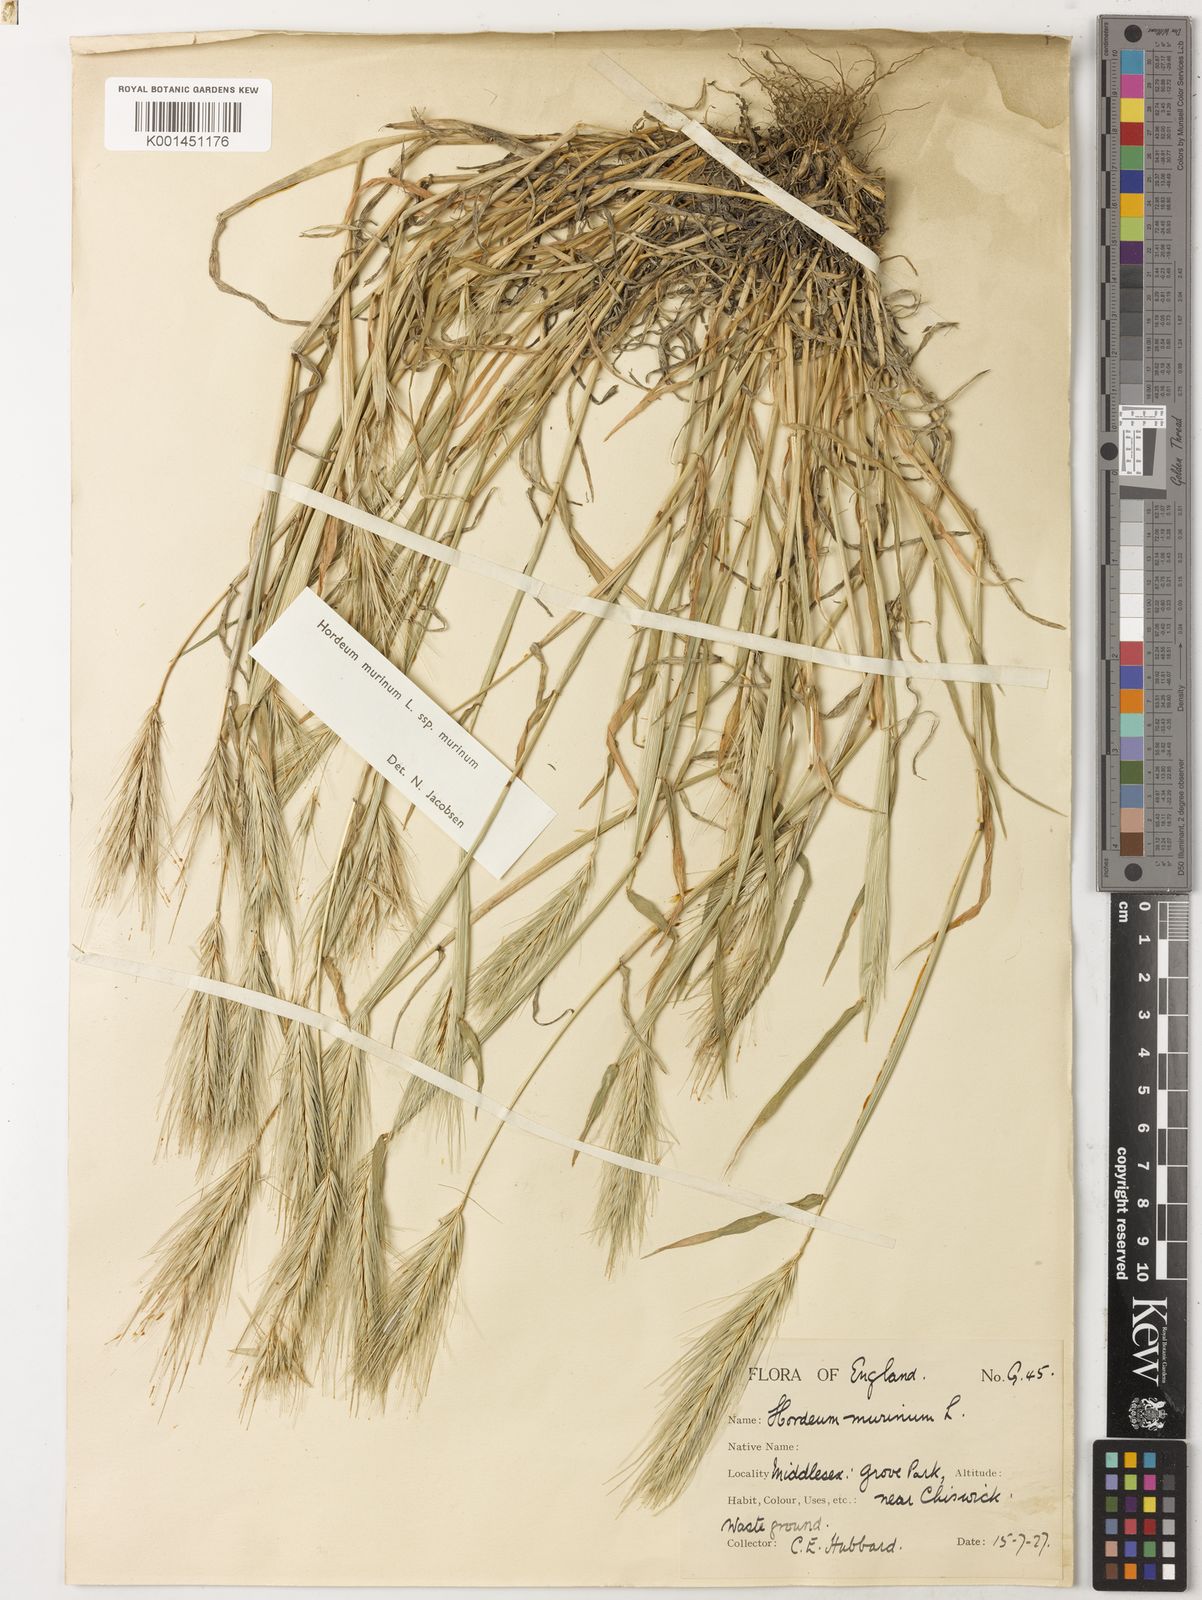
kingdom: Plantae
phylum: Tracheophyta
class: Liliopsida
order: Poales
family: Poaceae
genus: Hordeum
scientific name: Hordeum murinum
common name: Wall barley
